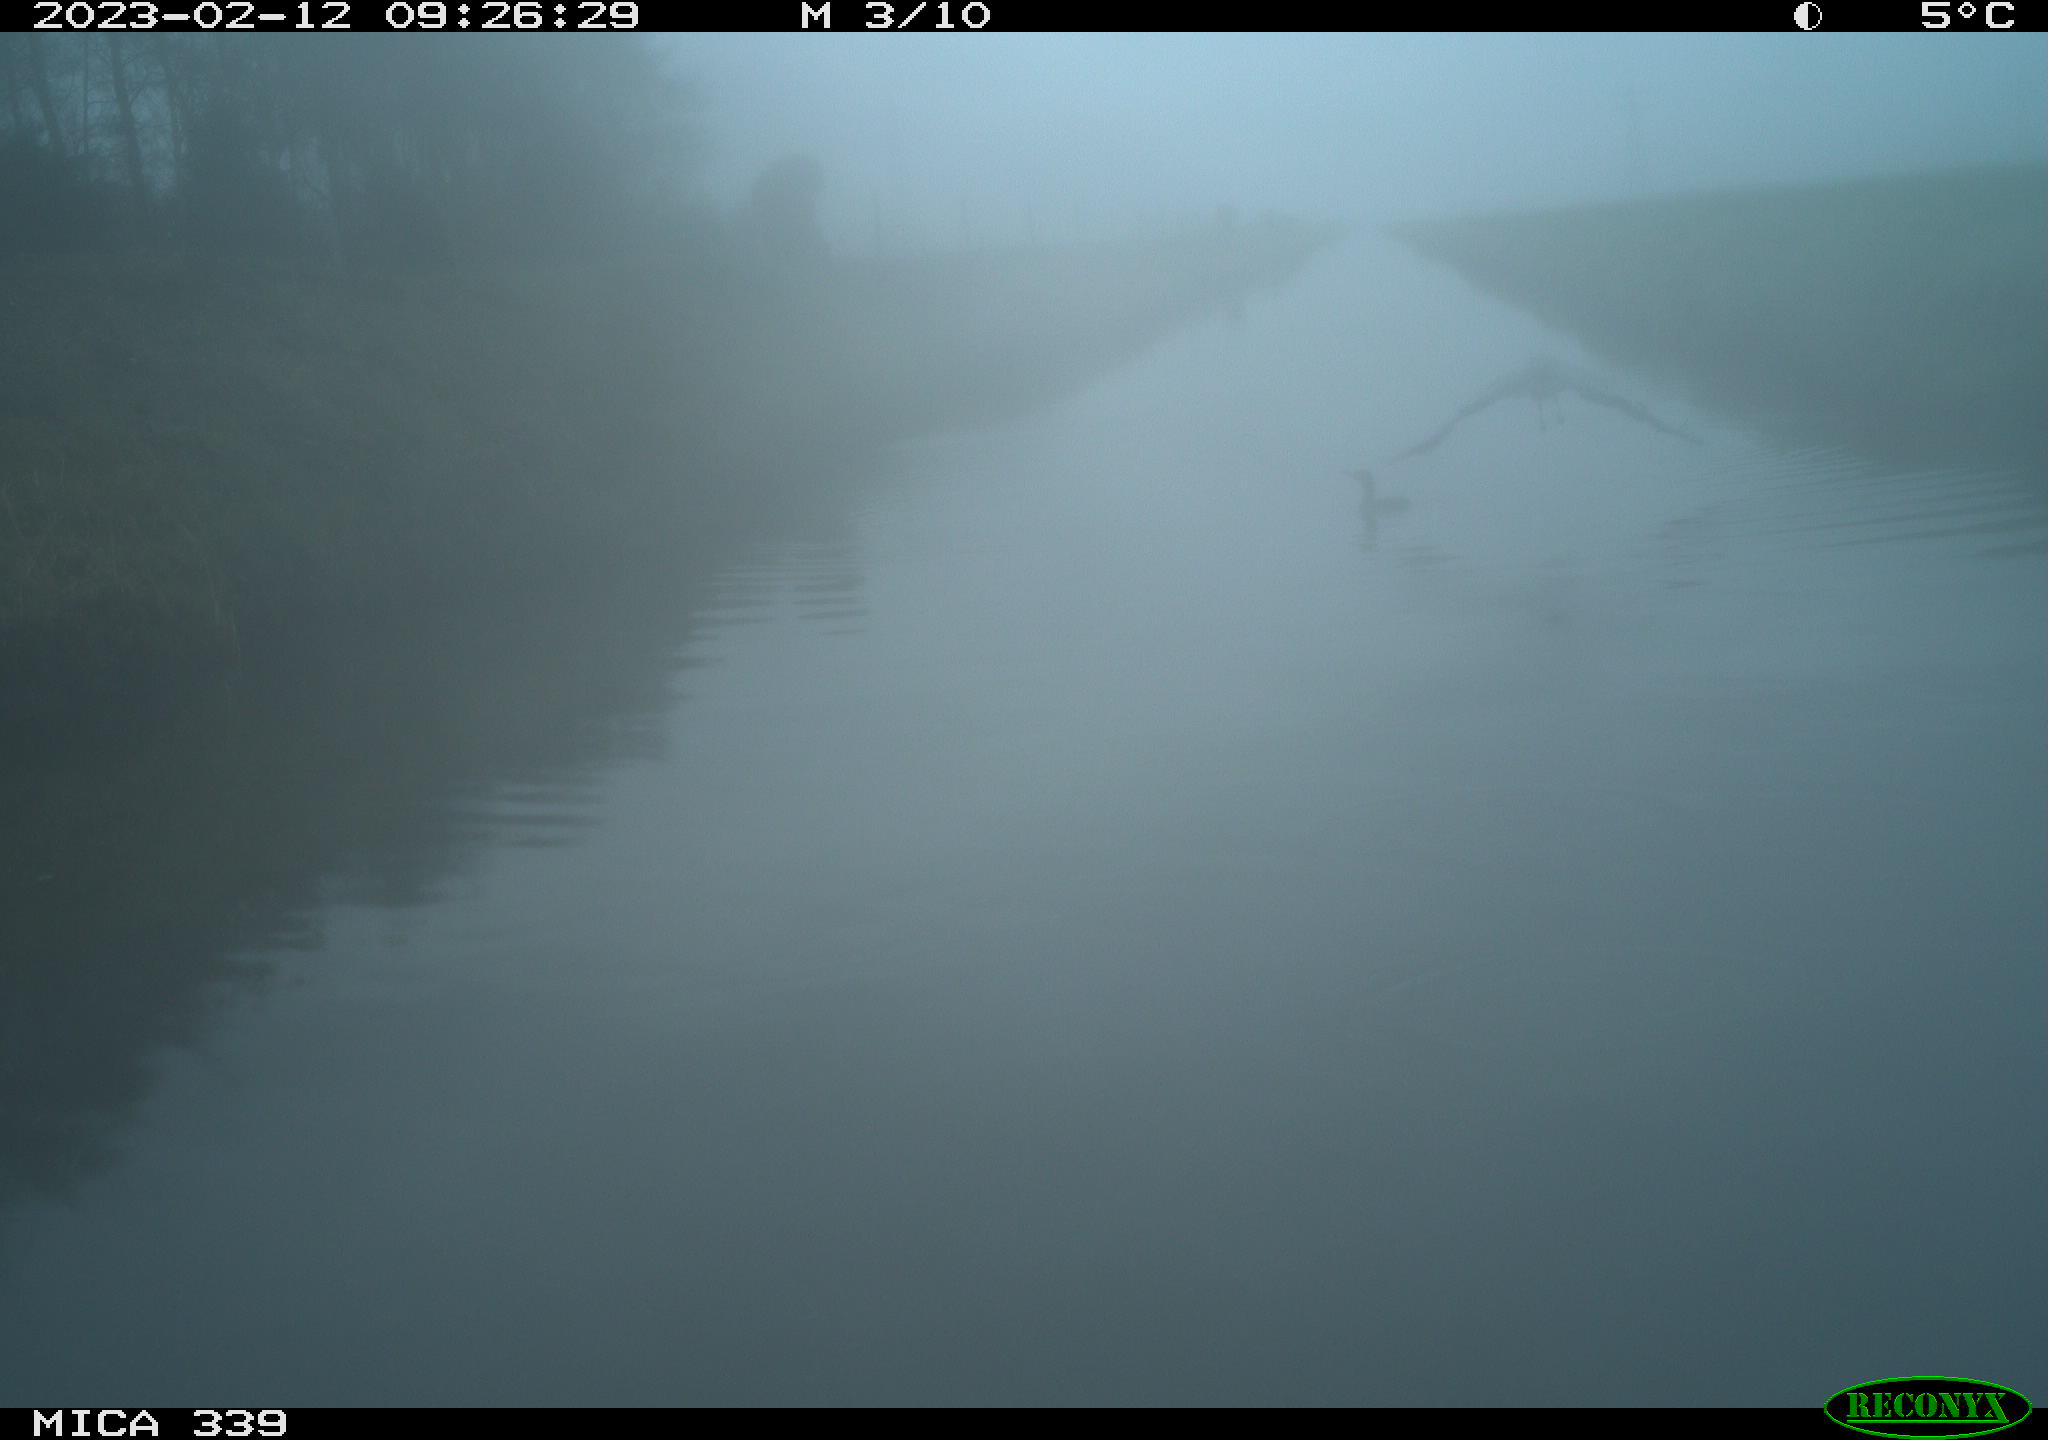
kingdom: Animalia
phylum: Chordata
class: Aves
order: Pelecaniformes
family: Ardeidae
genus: Ardea
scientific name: Ardea cinerea
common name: Grey heron
